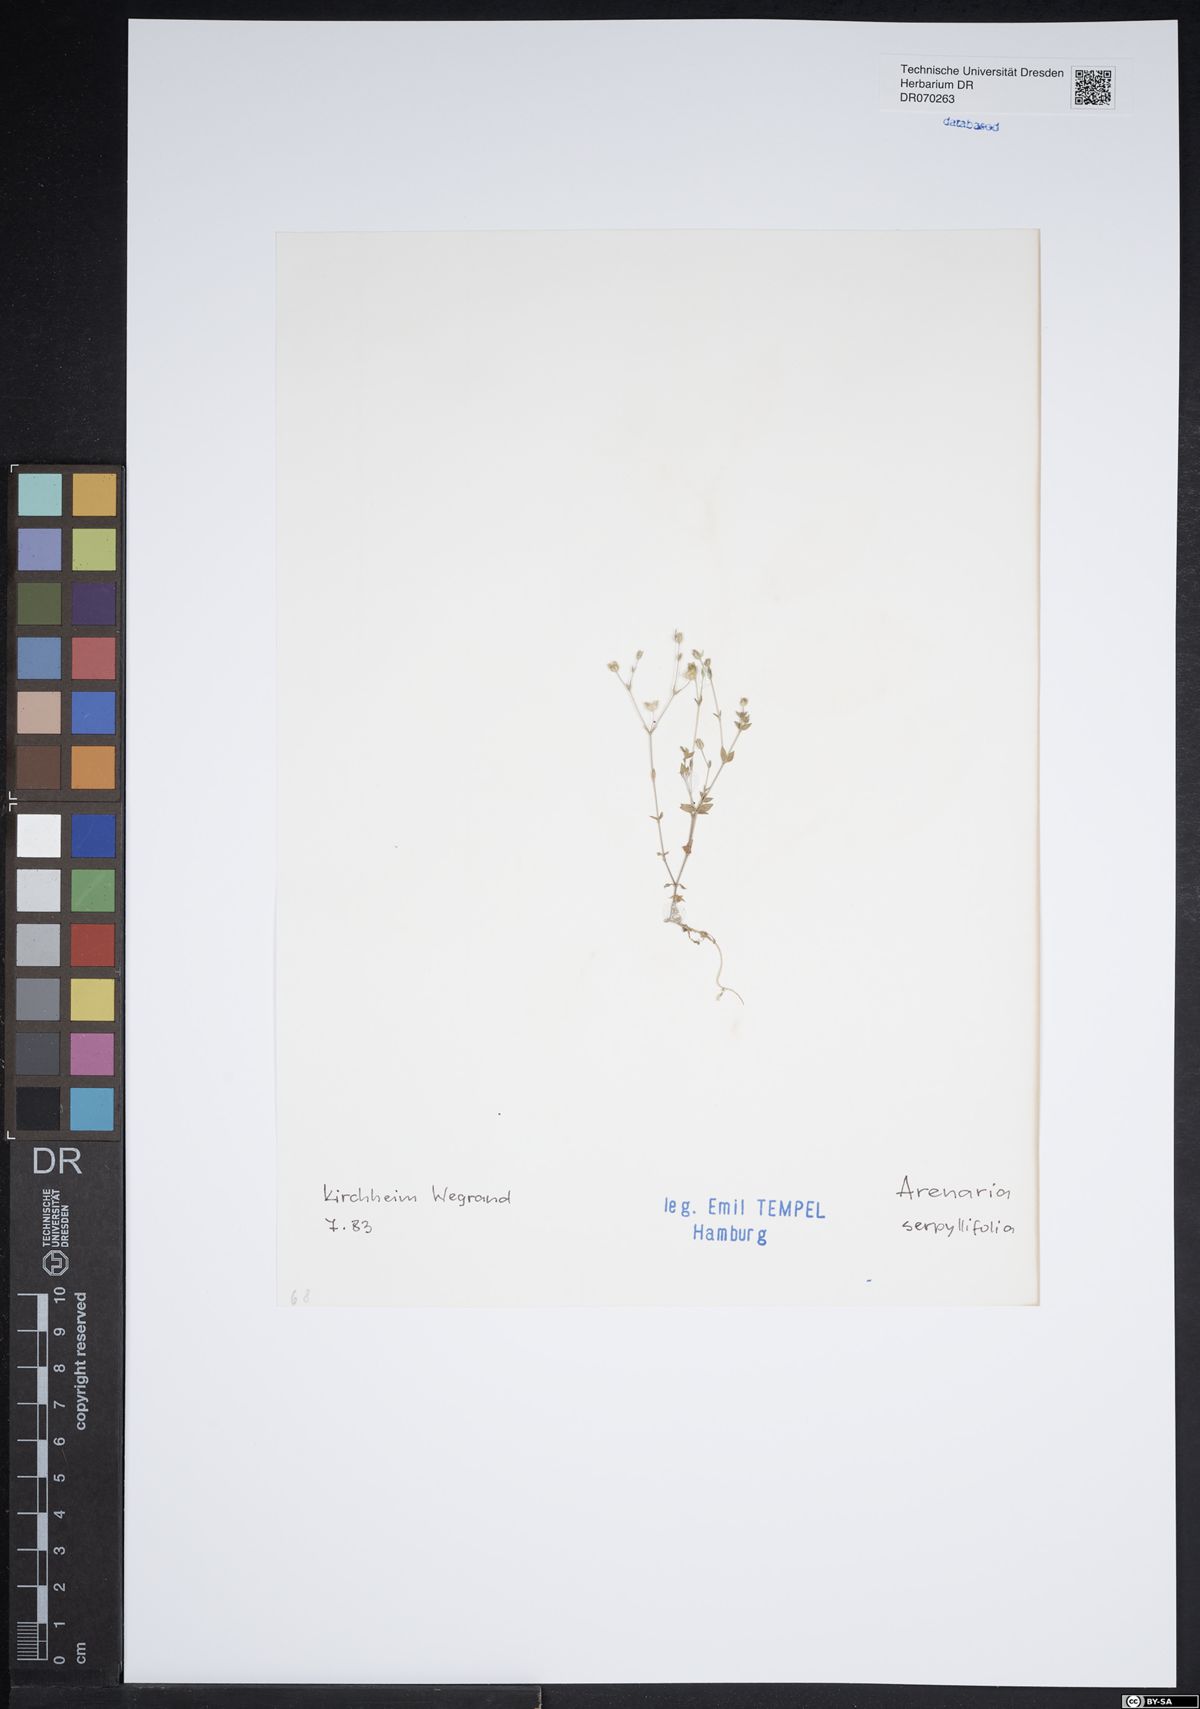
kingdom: Plantae
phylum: Tracheophyta
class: Magnoliopsida
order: Caryophyllales
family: Caryophyllaceae
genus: Arenaria
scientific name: Arenaria serpyllifolia
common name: Thyme-leaved sandwort
